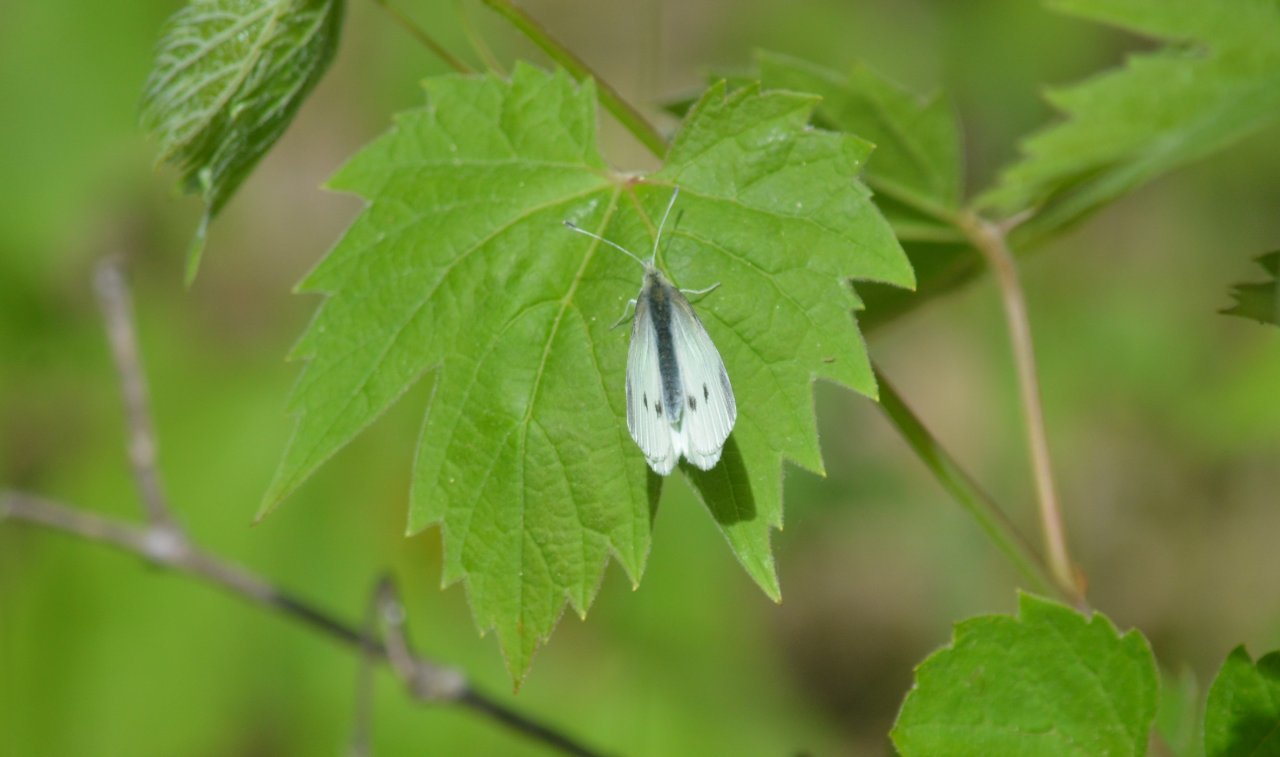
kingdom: Animalia
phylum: Arthropoda
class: Insecta
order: Lepidoptera
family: Pieridae
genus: Pieris
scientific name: Pieris rapae
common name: Cabbage White
